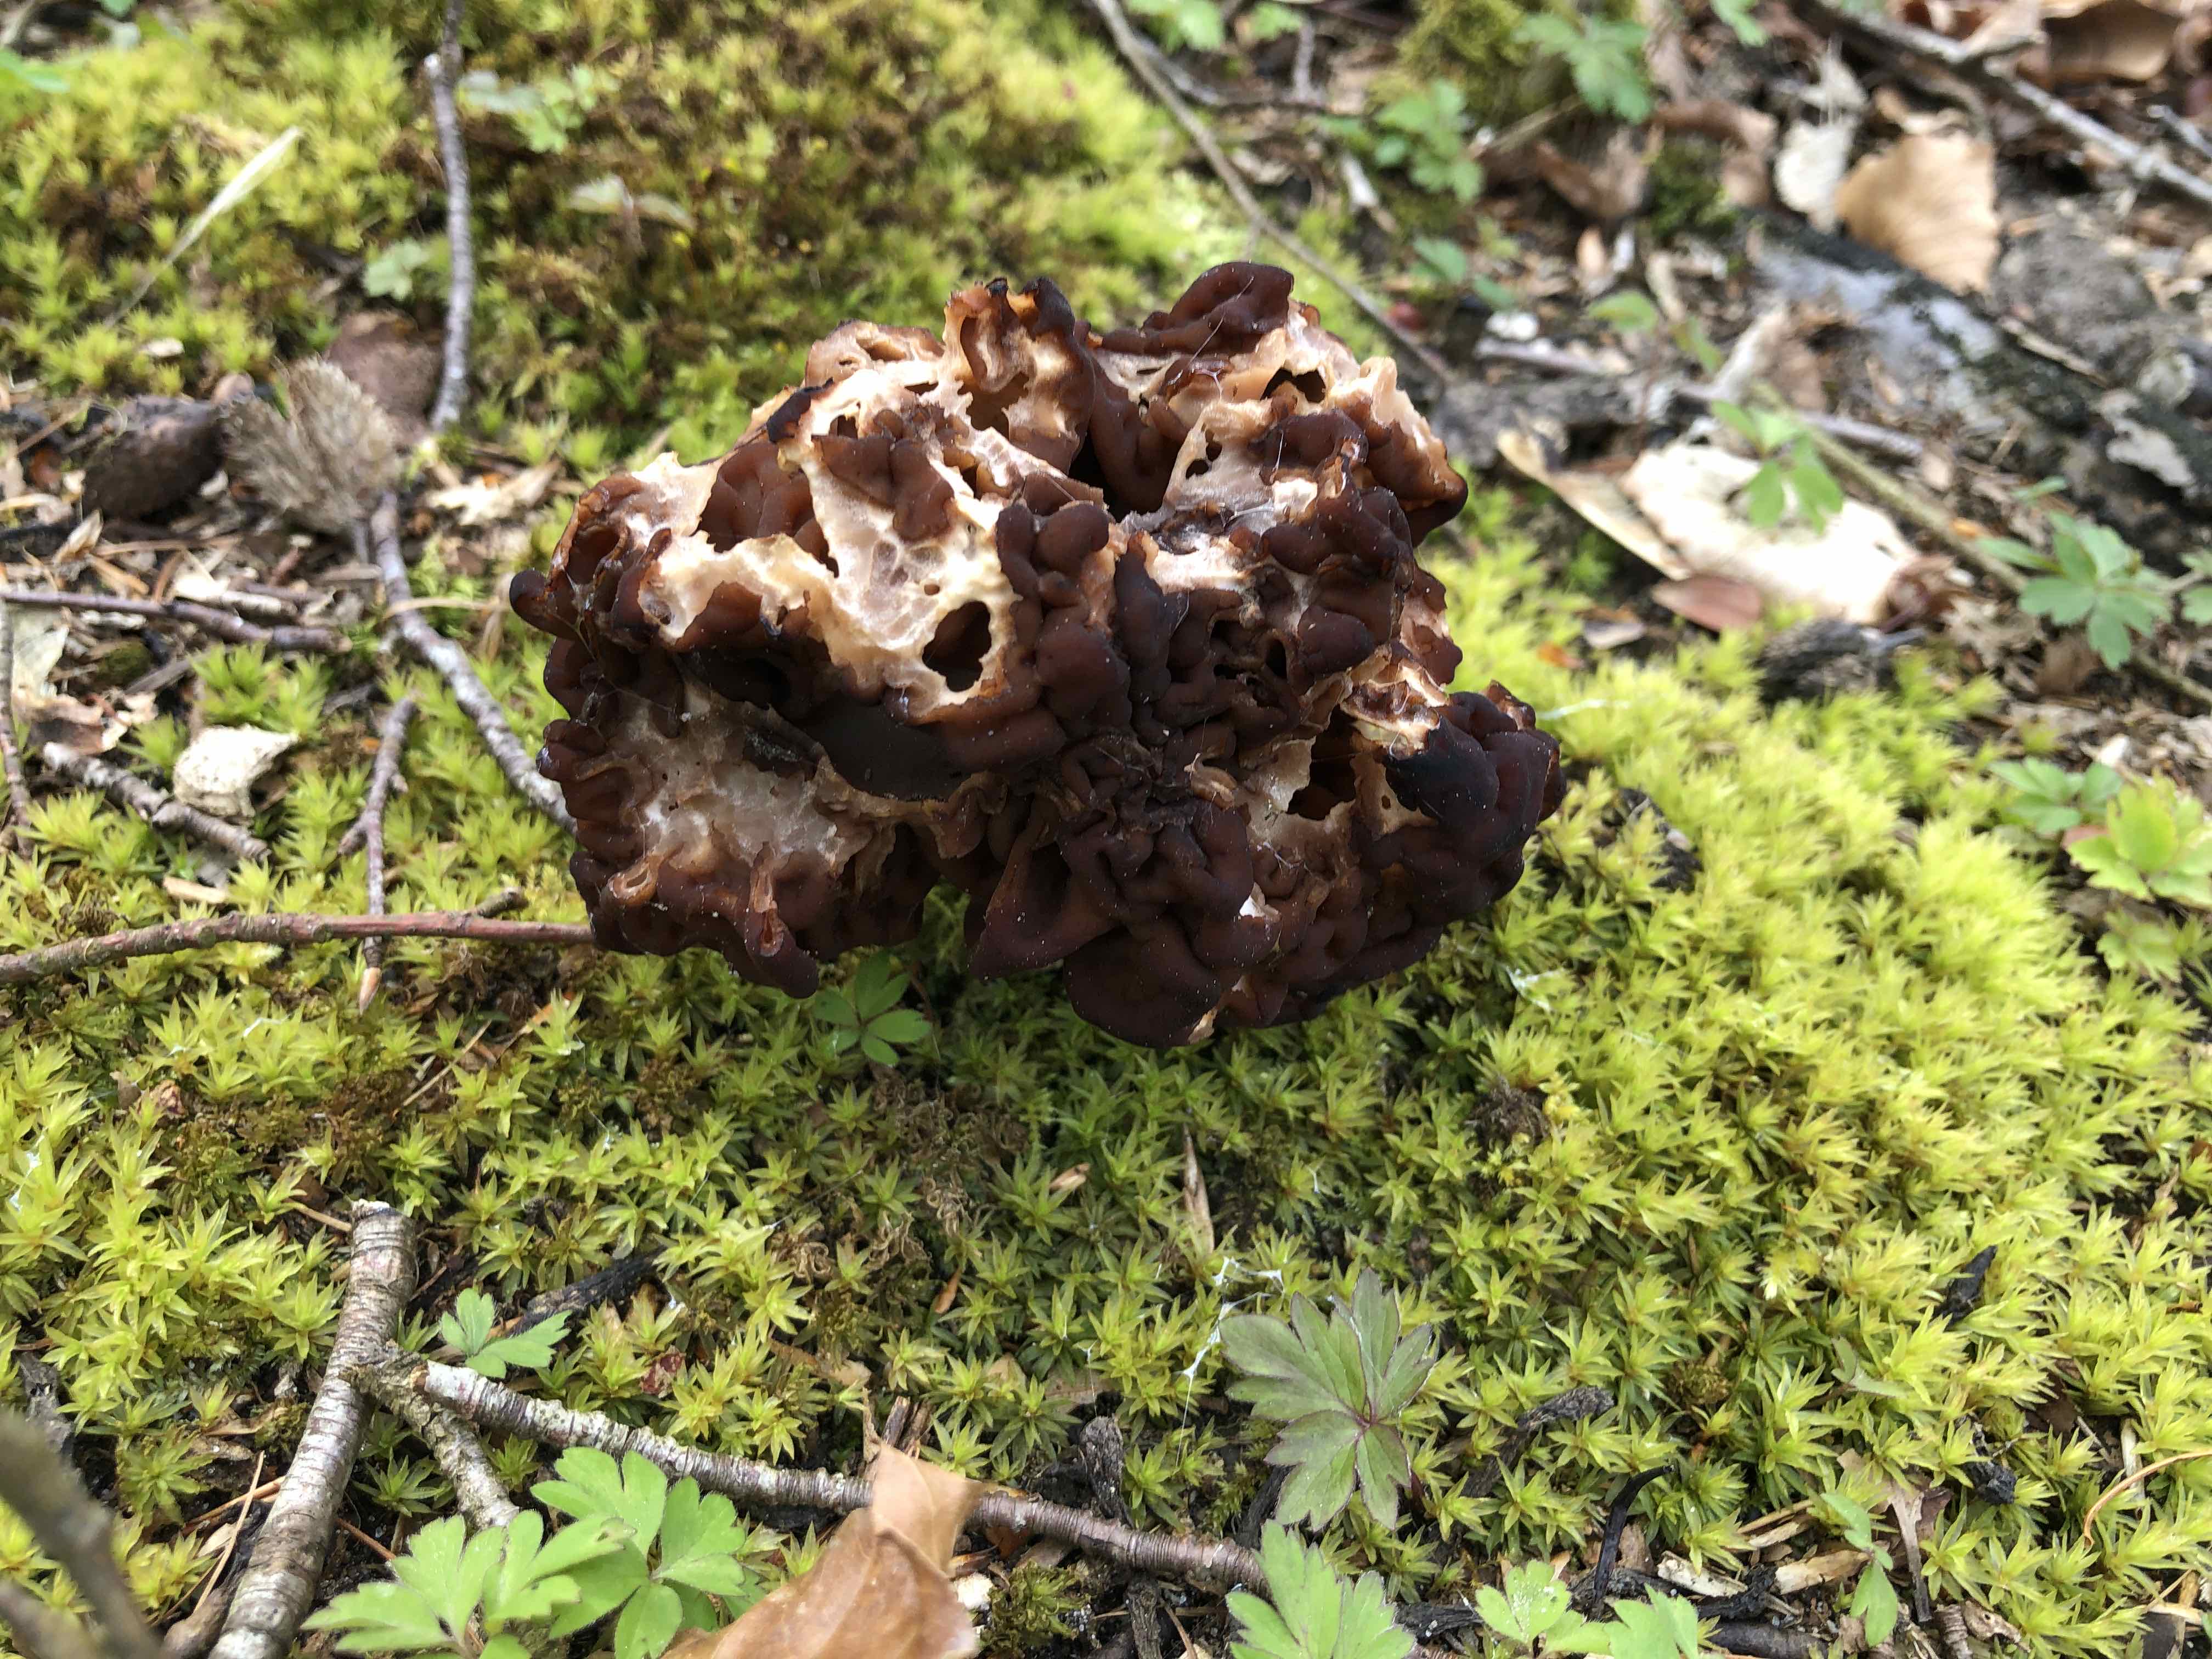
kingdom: Fungi
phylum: Ascomycota
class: Pezizomycetes
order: Pezizales
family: Discinaceae
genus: Gyromitra
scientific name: Gyromitra esculenta
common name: ægte stenmorkel
